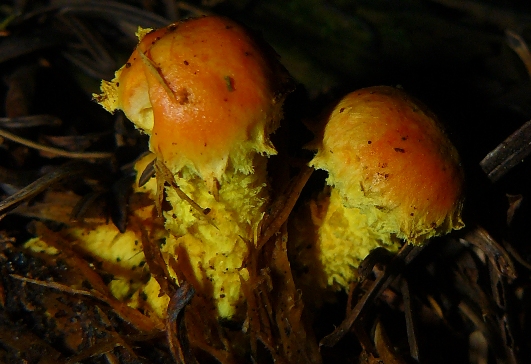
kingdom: Fungi
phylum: Basidiomycota
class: Agaricomycetes
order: Agaricales
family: Strophariaceae
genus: Pholiota
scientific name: Pholiota flammans
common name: flamme-skælhat
